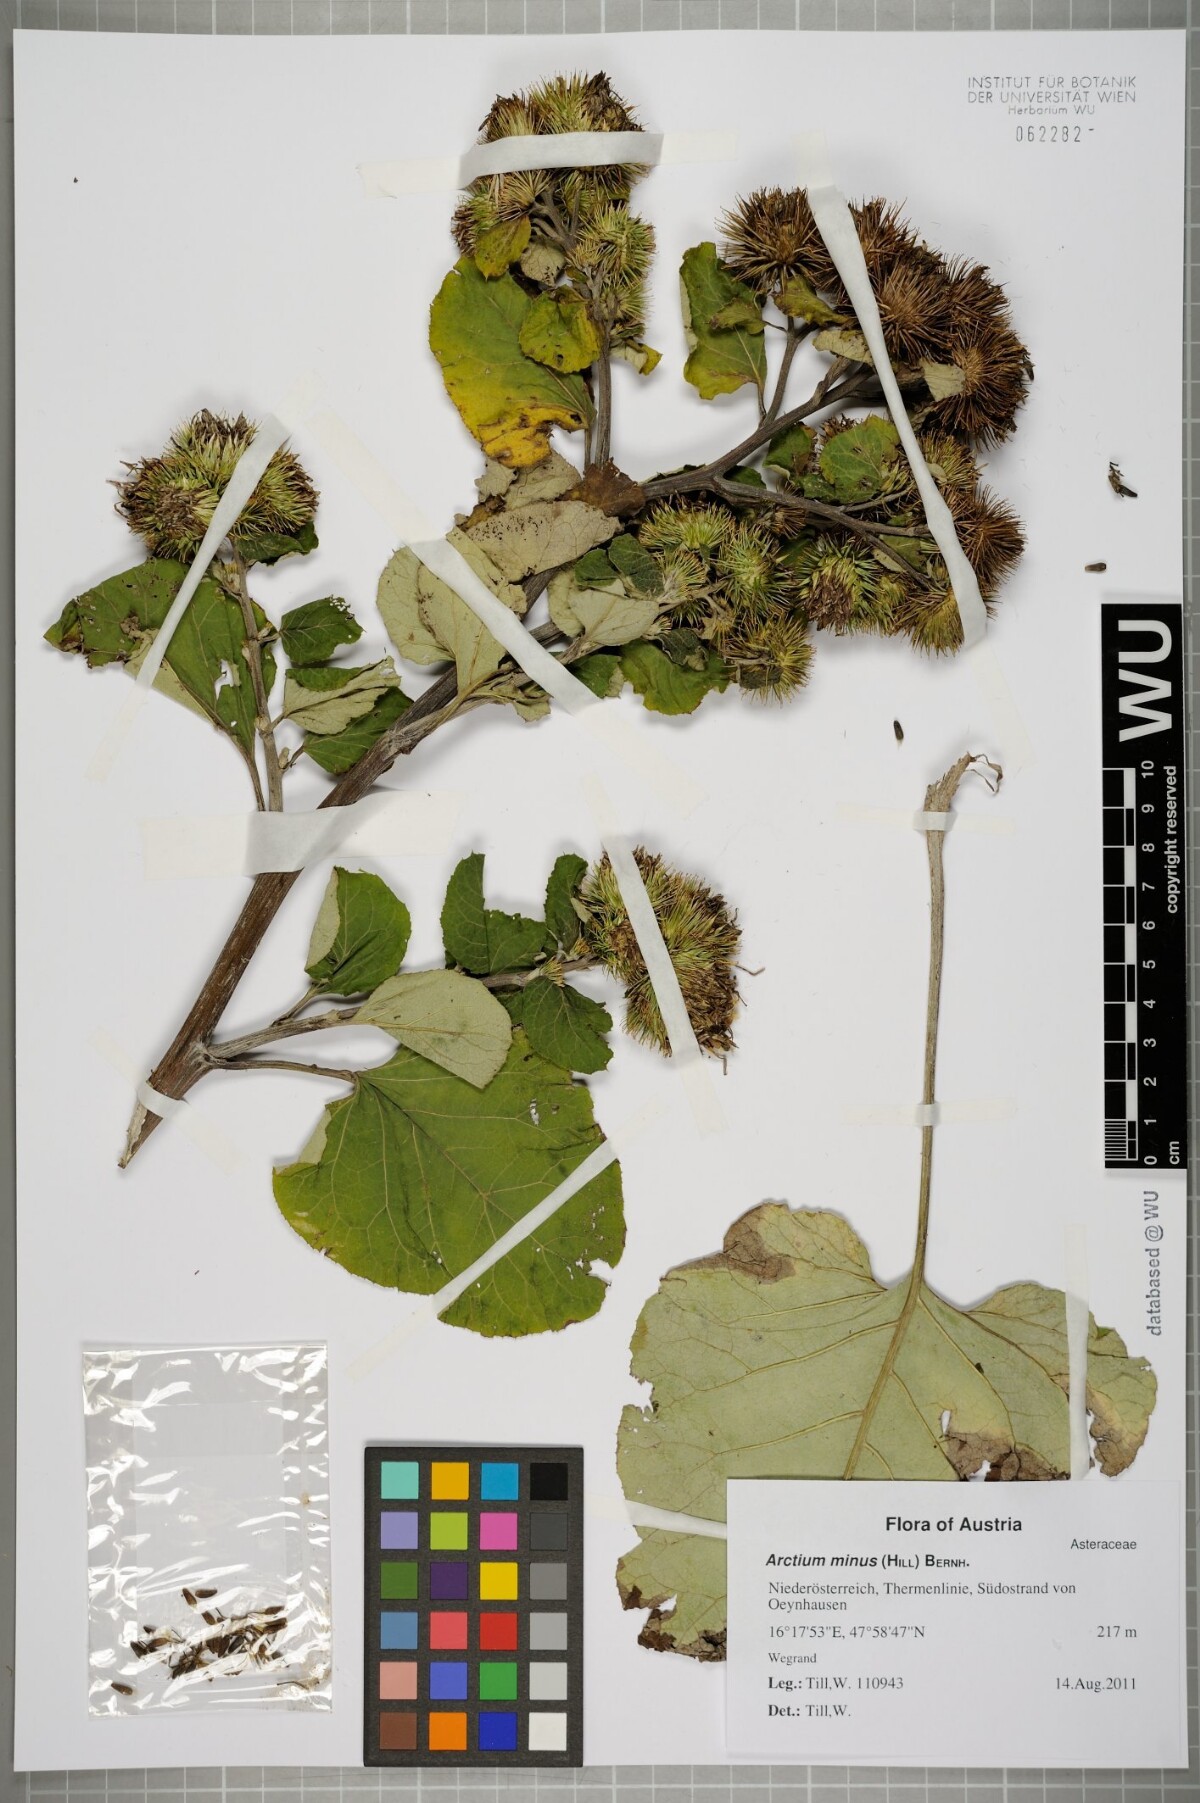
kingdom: Plantae
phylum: Tracheophyta
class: Magnoliopsida
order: Asterales
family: Asteraceae
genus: Arctium
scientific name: Arctium minus
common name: Lesser burdock
